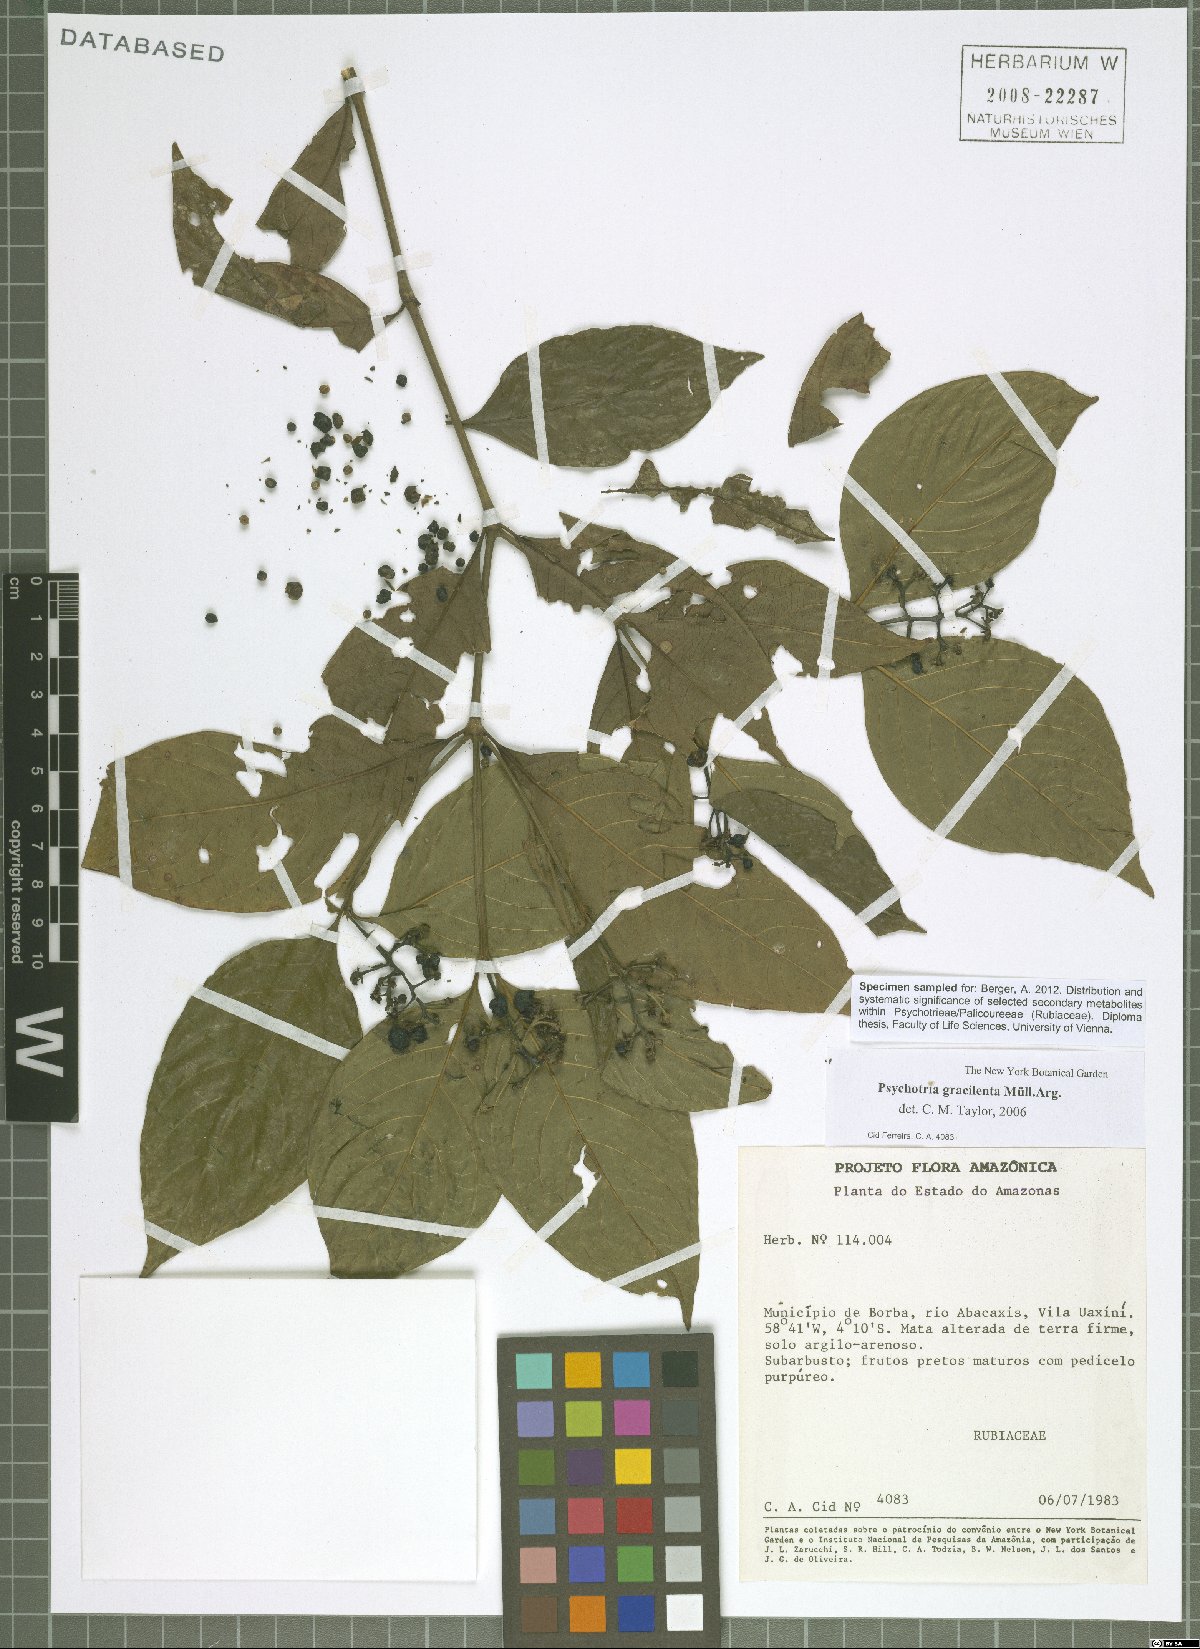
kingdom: Plantae
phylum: Tracheophyta
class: Magnoliopsida
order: Gentianales
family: Rubiaceae
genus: Palicourea
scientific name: Palicourea gracilenta
